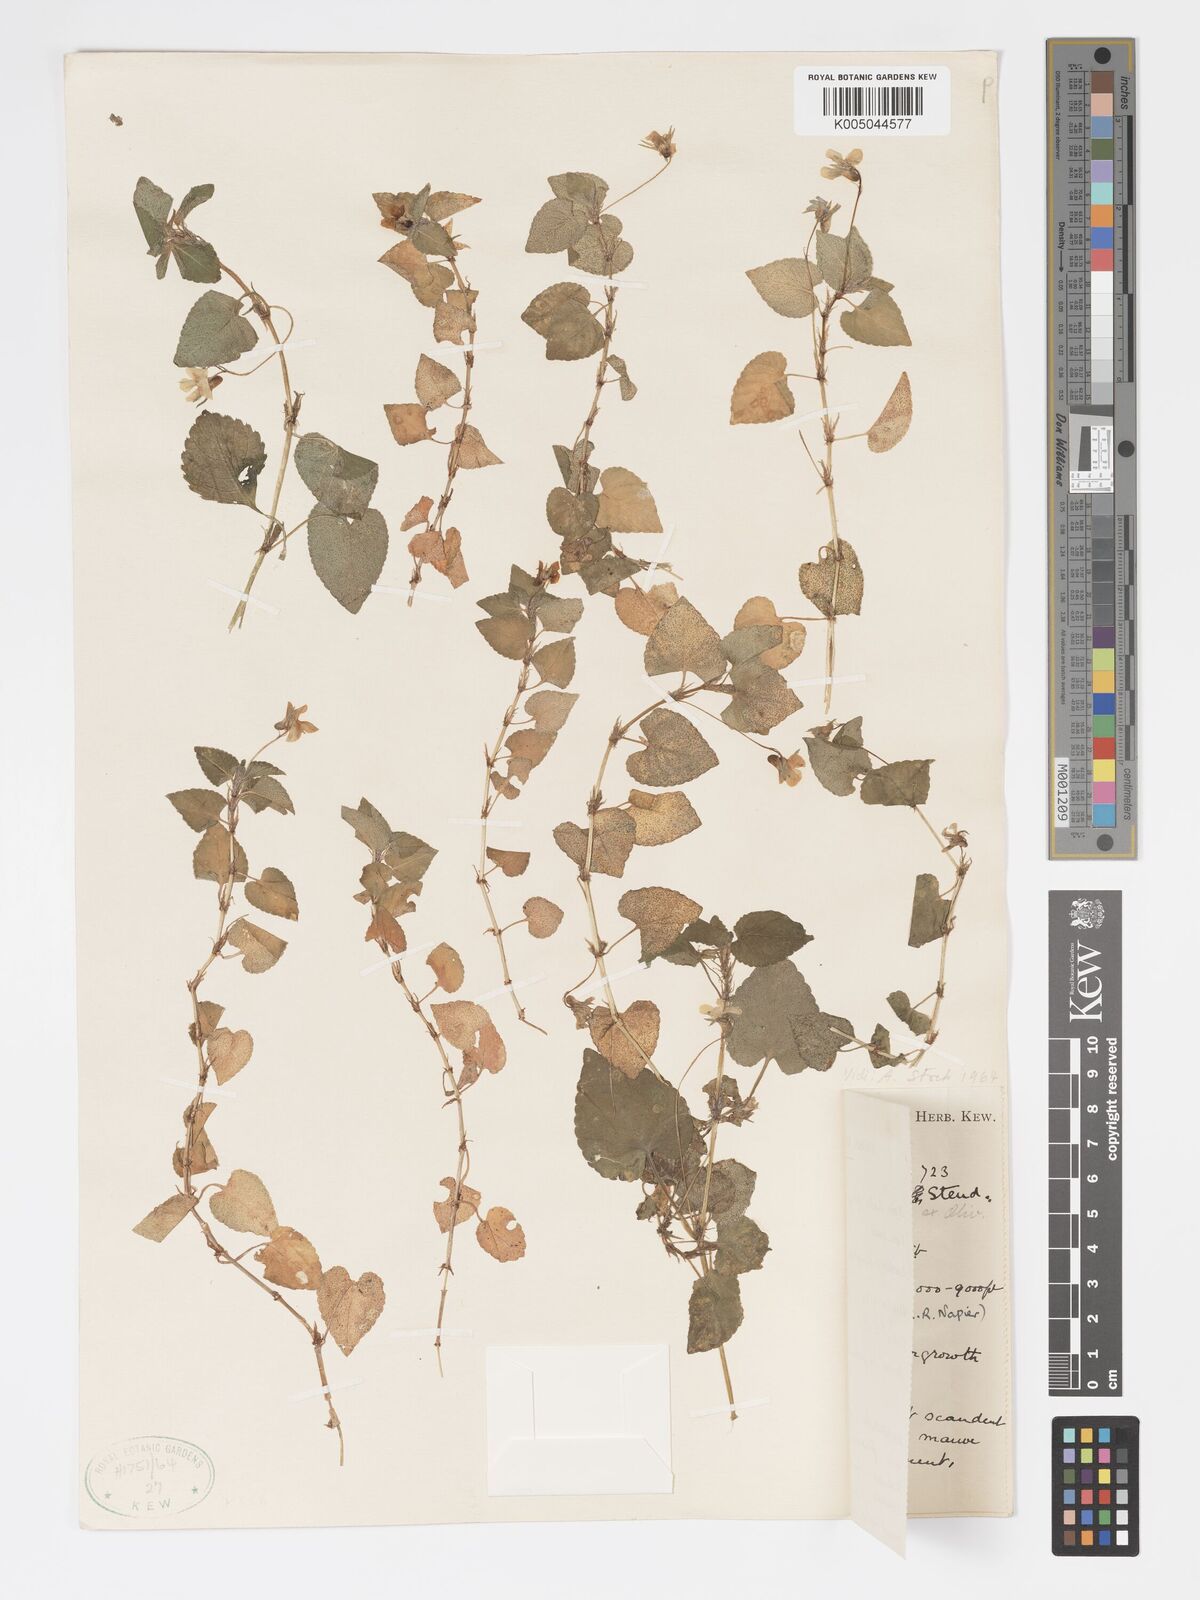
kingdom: Plantae
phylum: Tracheophyta
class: Magnoliopsida
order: Malpighiales
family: Violaceae
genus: Viola
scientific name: Viola abyssinica
